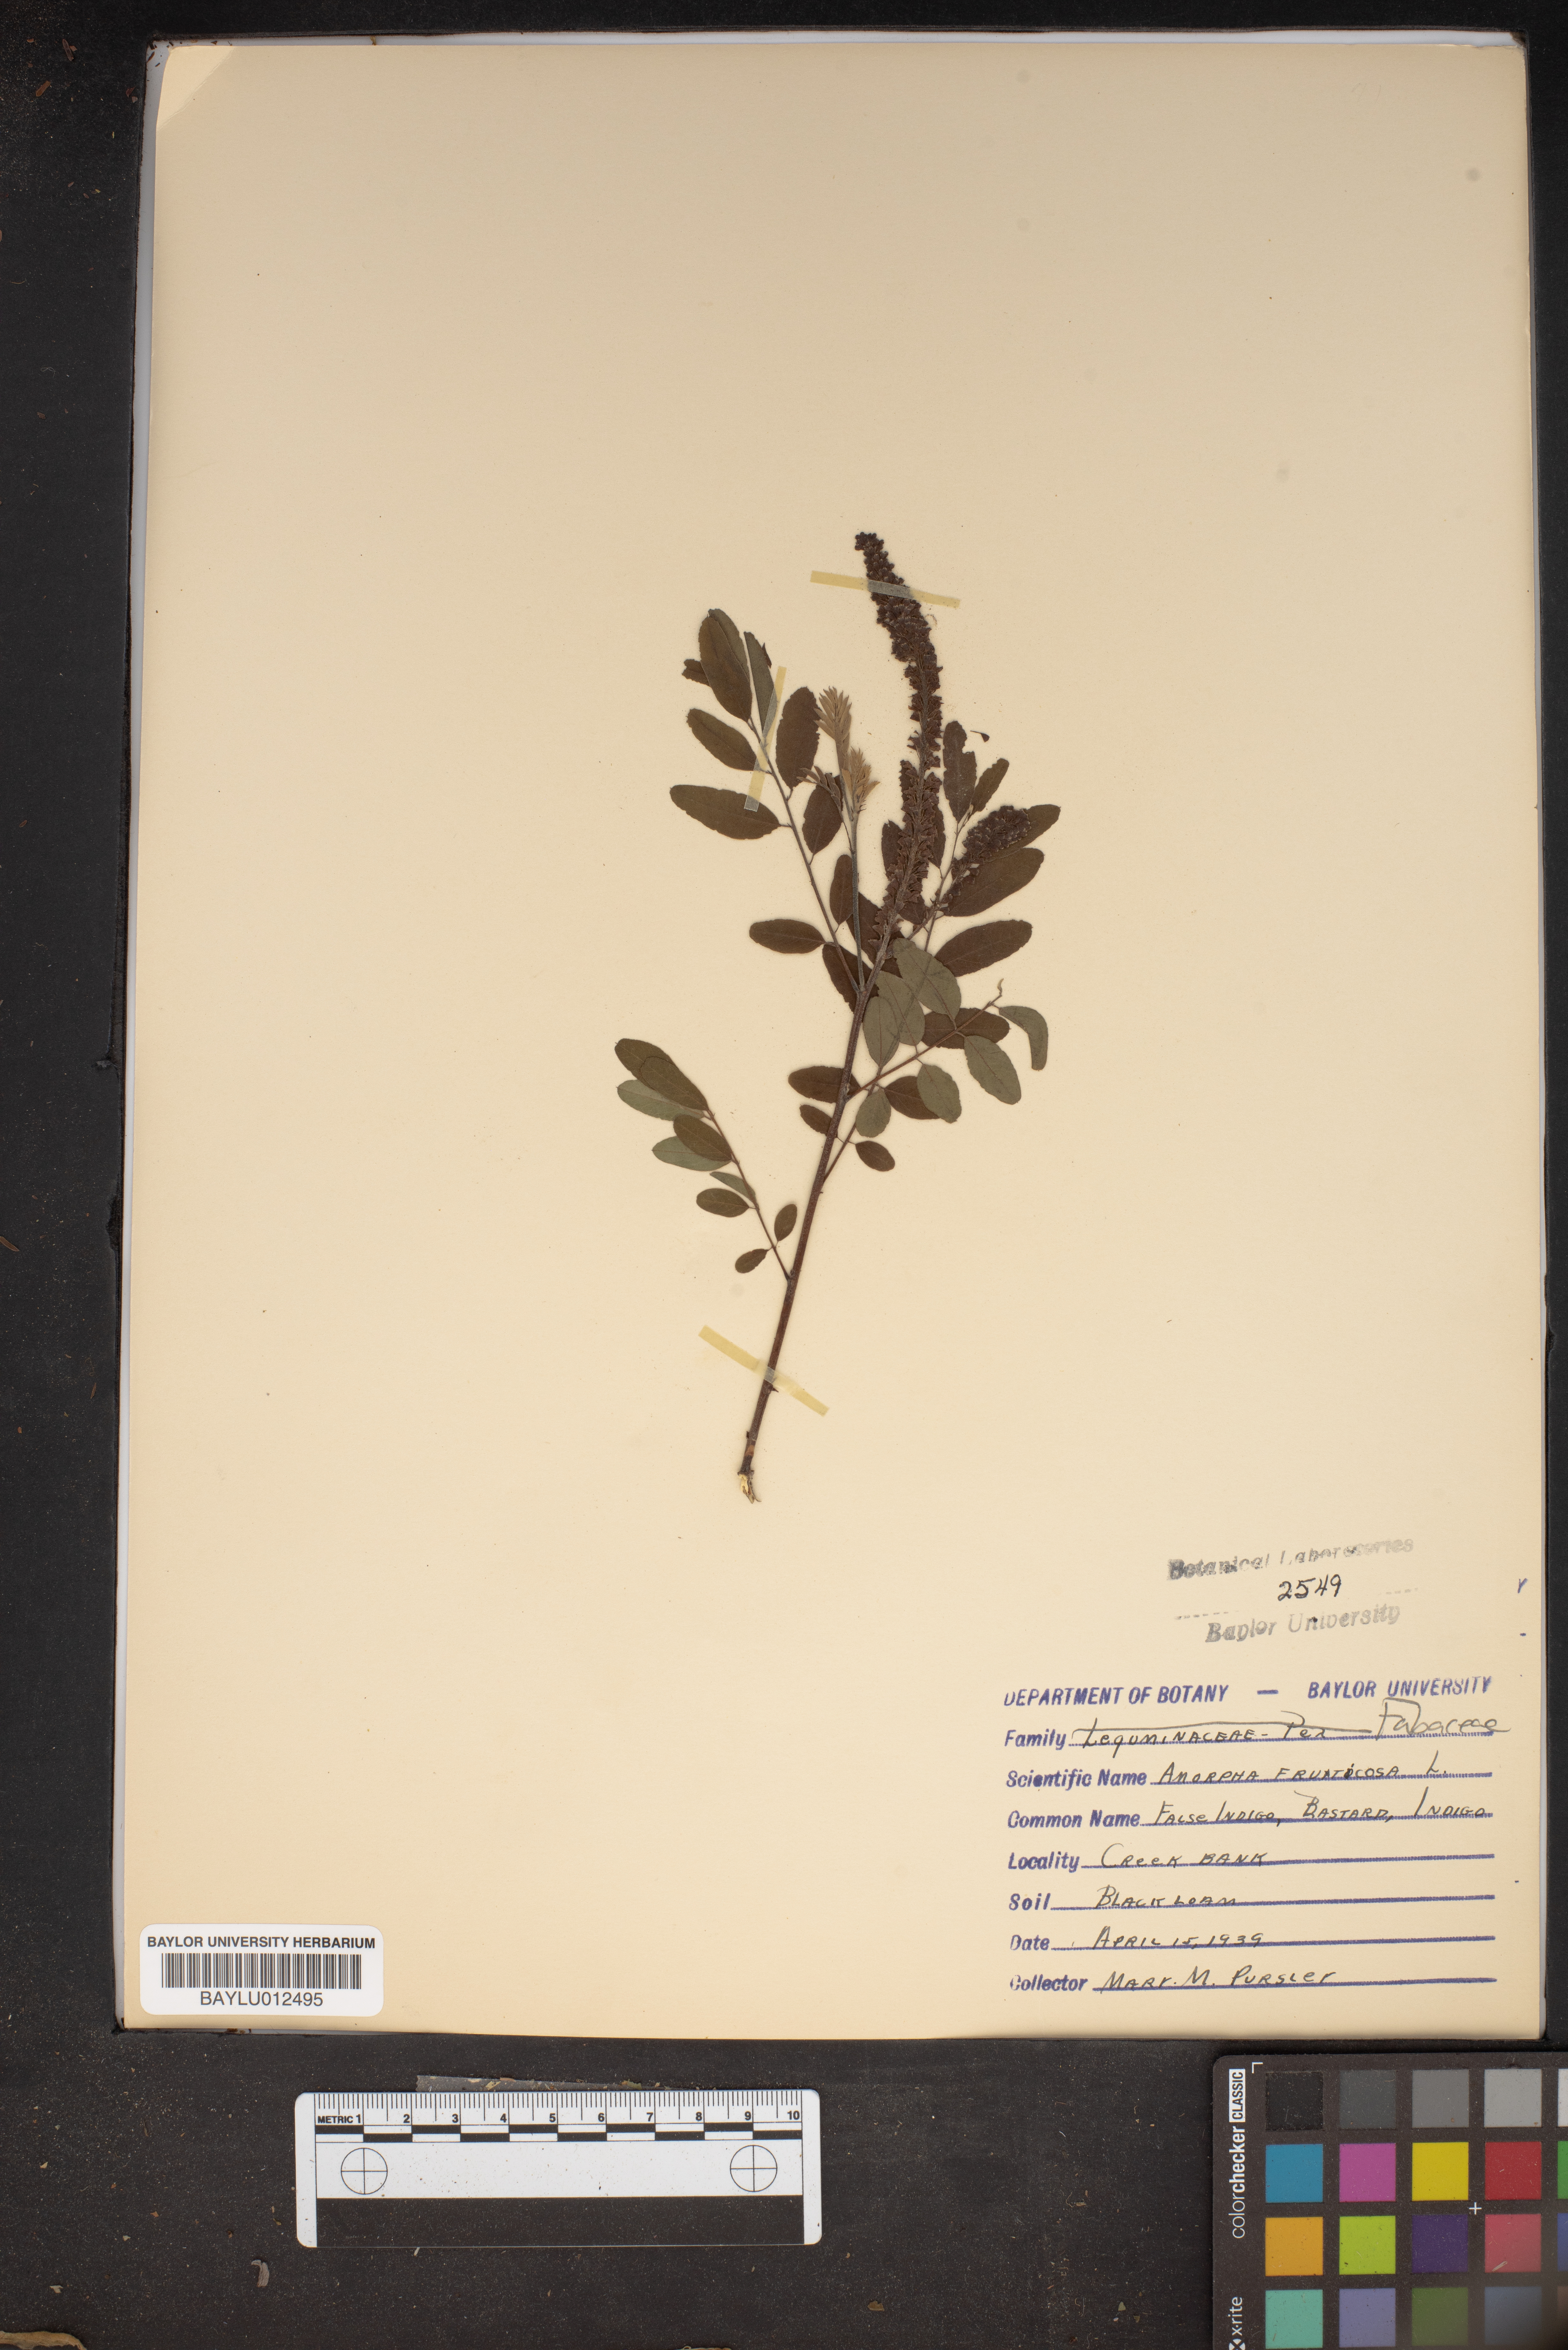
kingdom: Plantae
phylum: Tracheophyta
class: Magnoliopsida
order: Fabales
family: Fabaceae
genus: Amorpha
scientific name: Amorpha fruticosa
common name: False indigo
